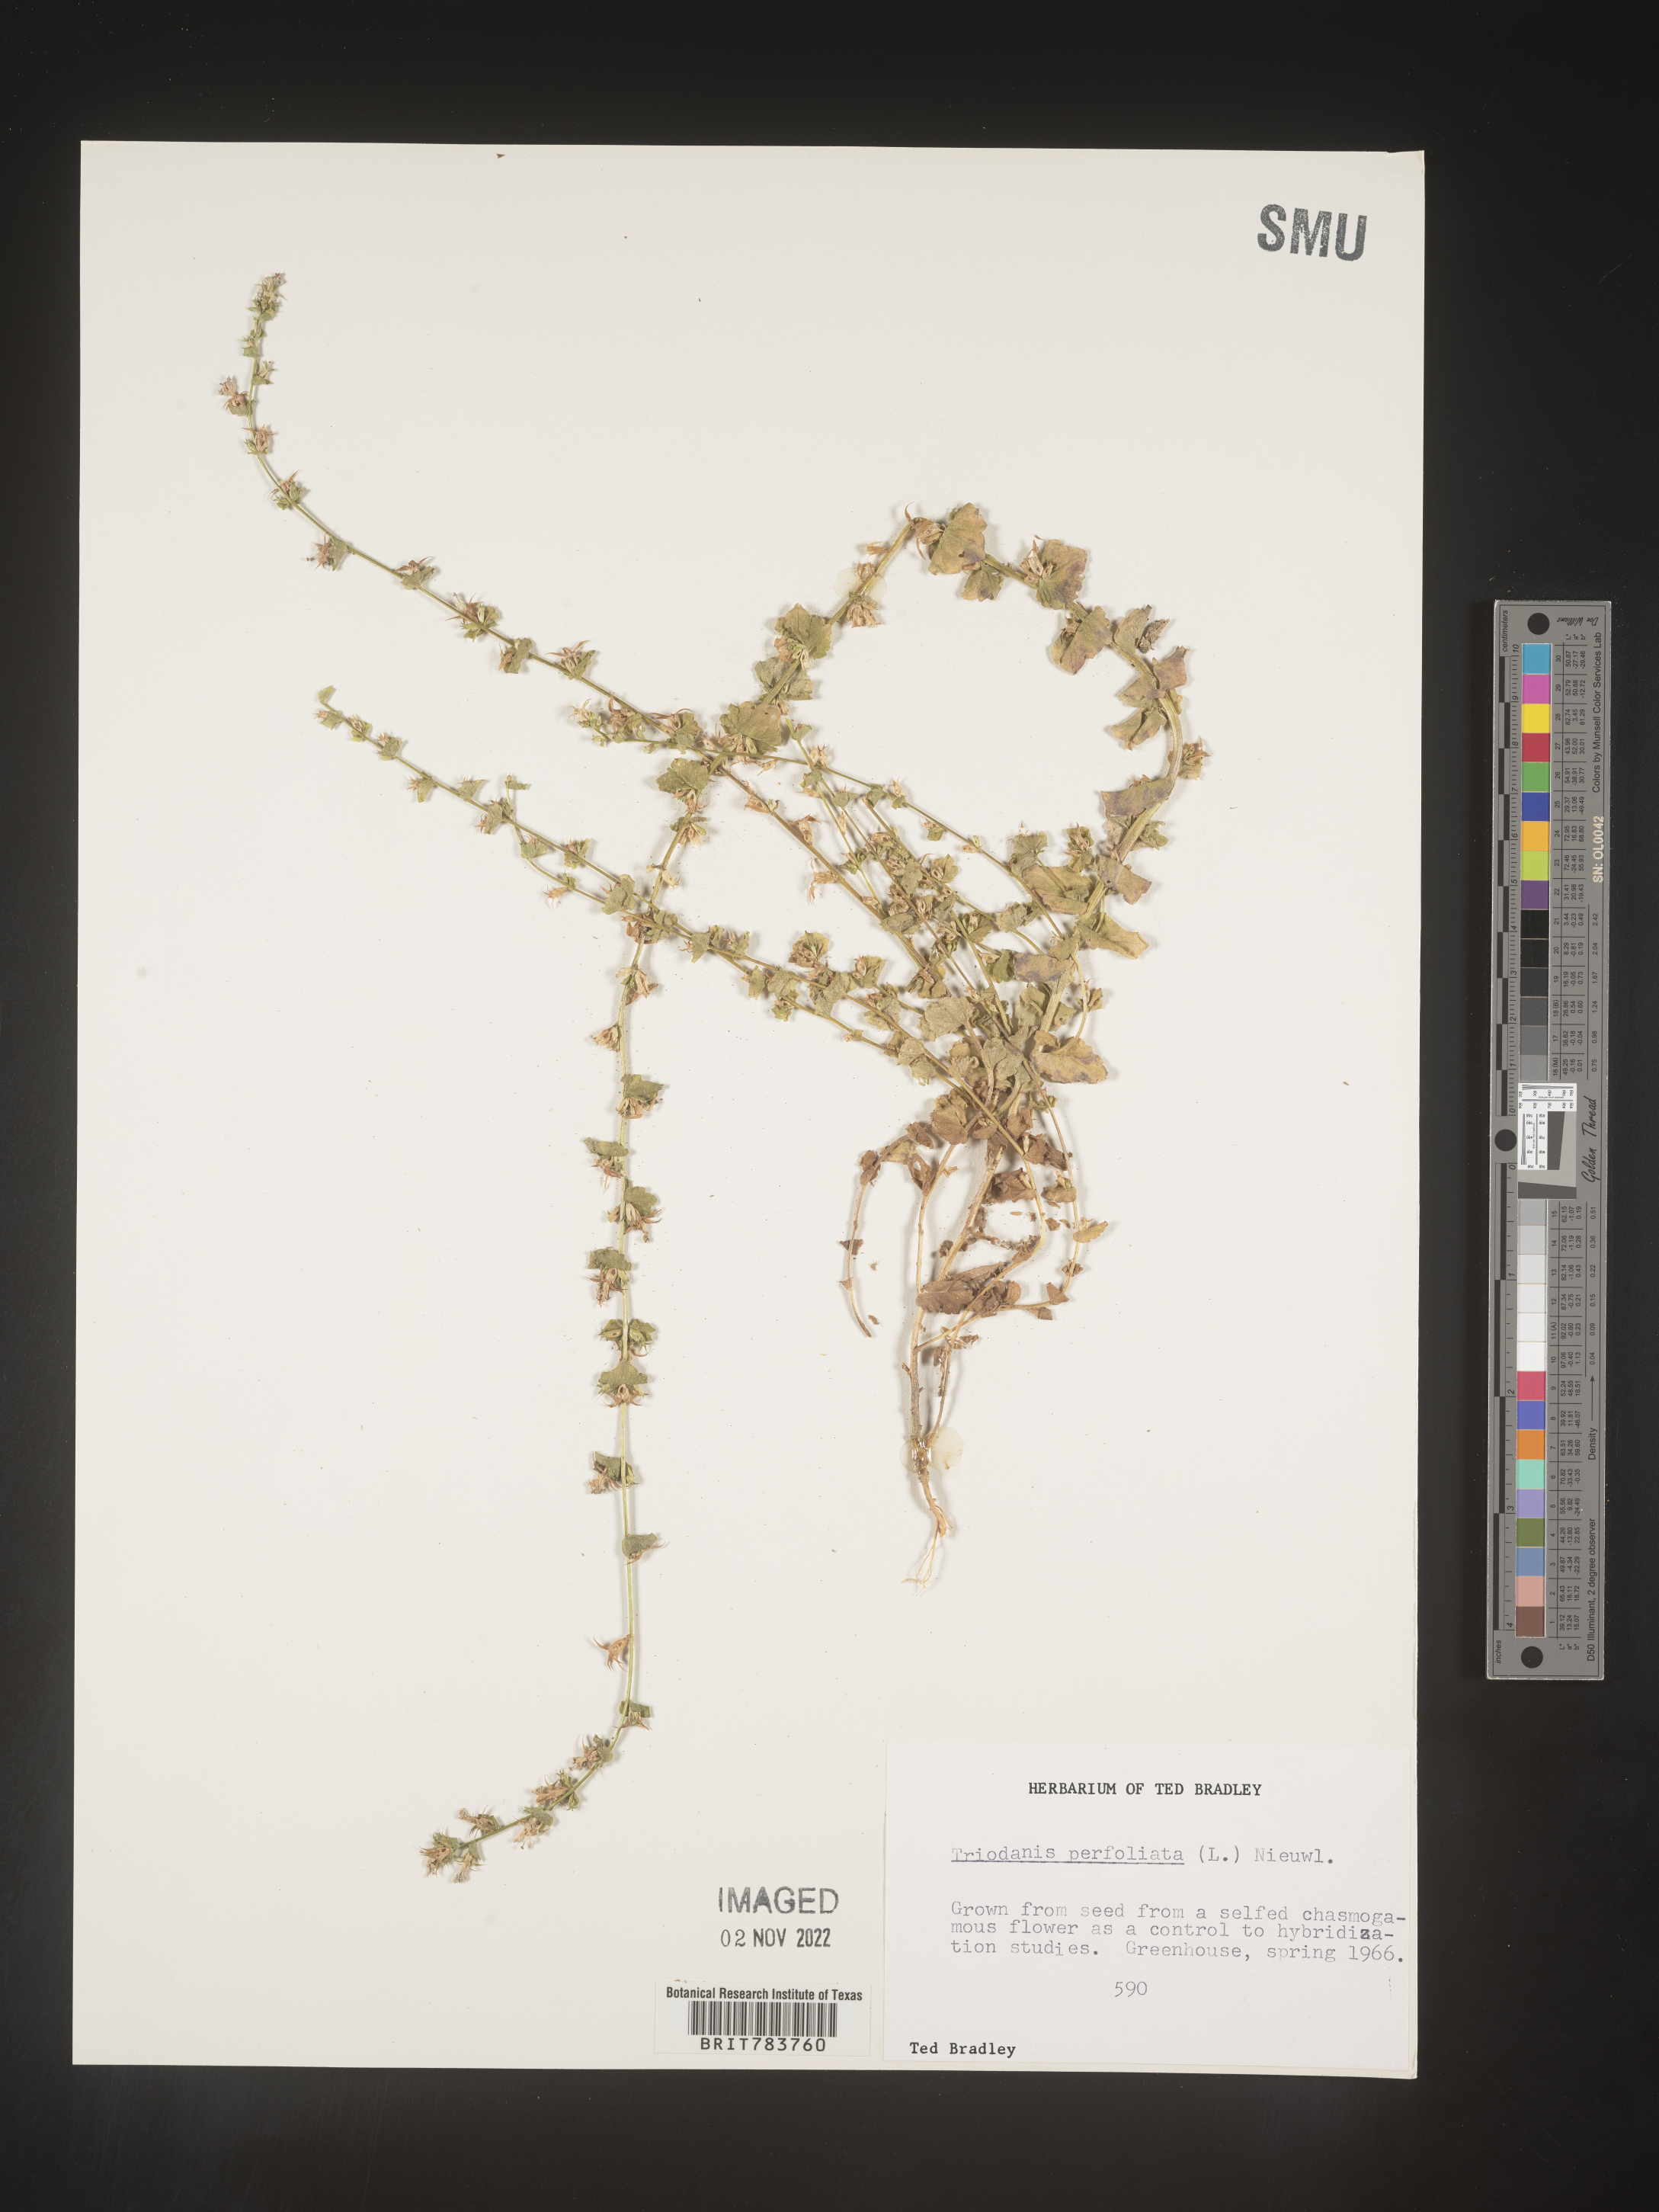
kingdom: Plantae
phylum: Tracheophyta
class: Magnoliopsida
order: Asterales
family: Campanulaceae
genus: Triodanis
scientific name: Triodanis
